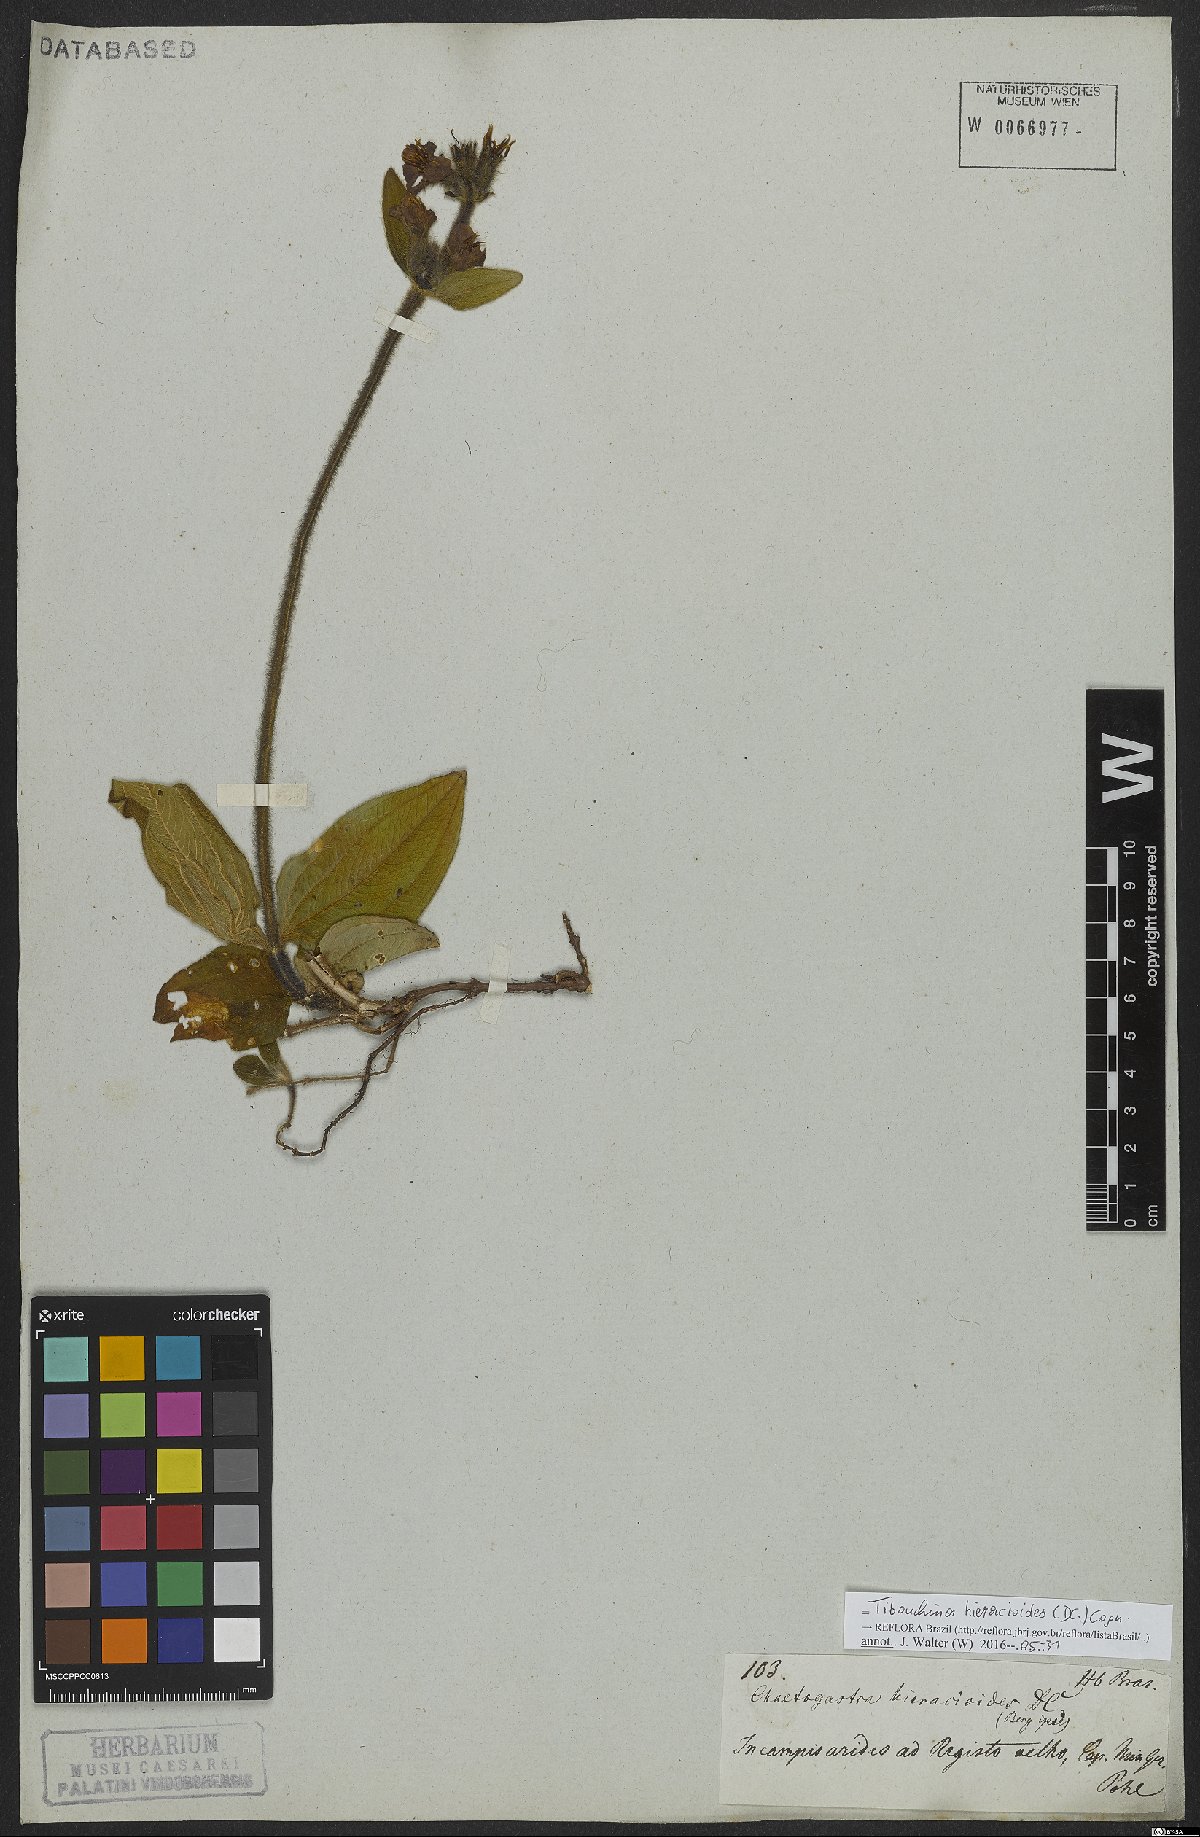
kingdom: Plantae
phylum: Tracheophyta
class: Magnoliopsida
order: Myrtales
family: Melastomataceae
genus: Chaetogastra
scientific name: Chaetogastra hieracioides
